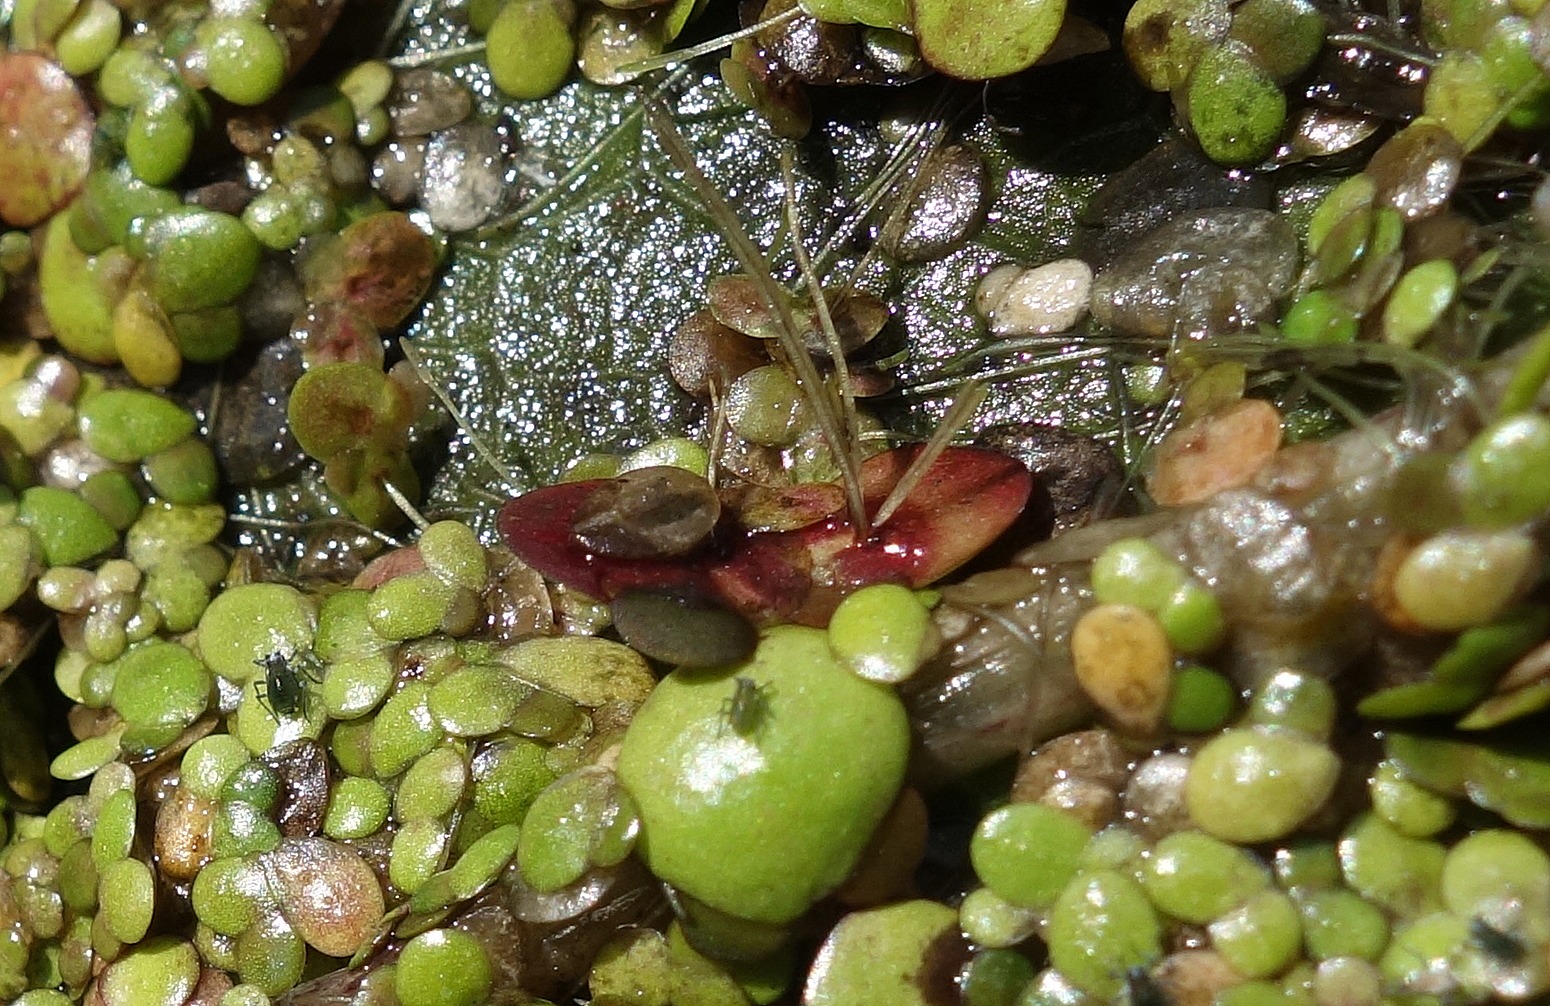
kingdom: Plantae
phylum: Tracheophyta
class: Liliopsida
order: Alismatales
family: Araceae
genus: Spirodela
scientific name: Spirodela polyrhiza
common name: Stor andemad
